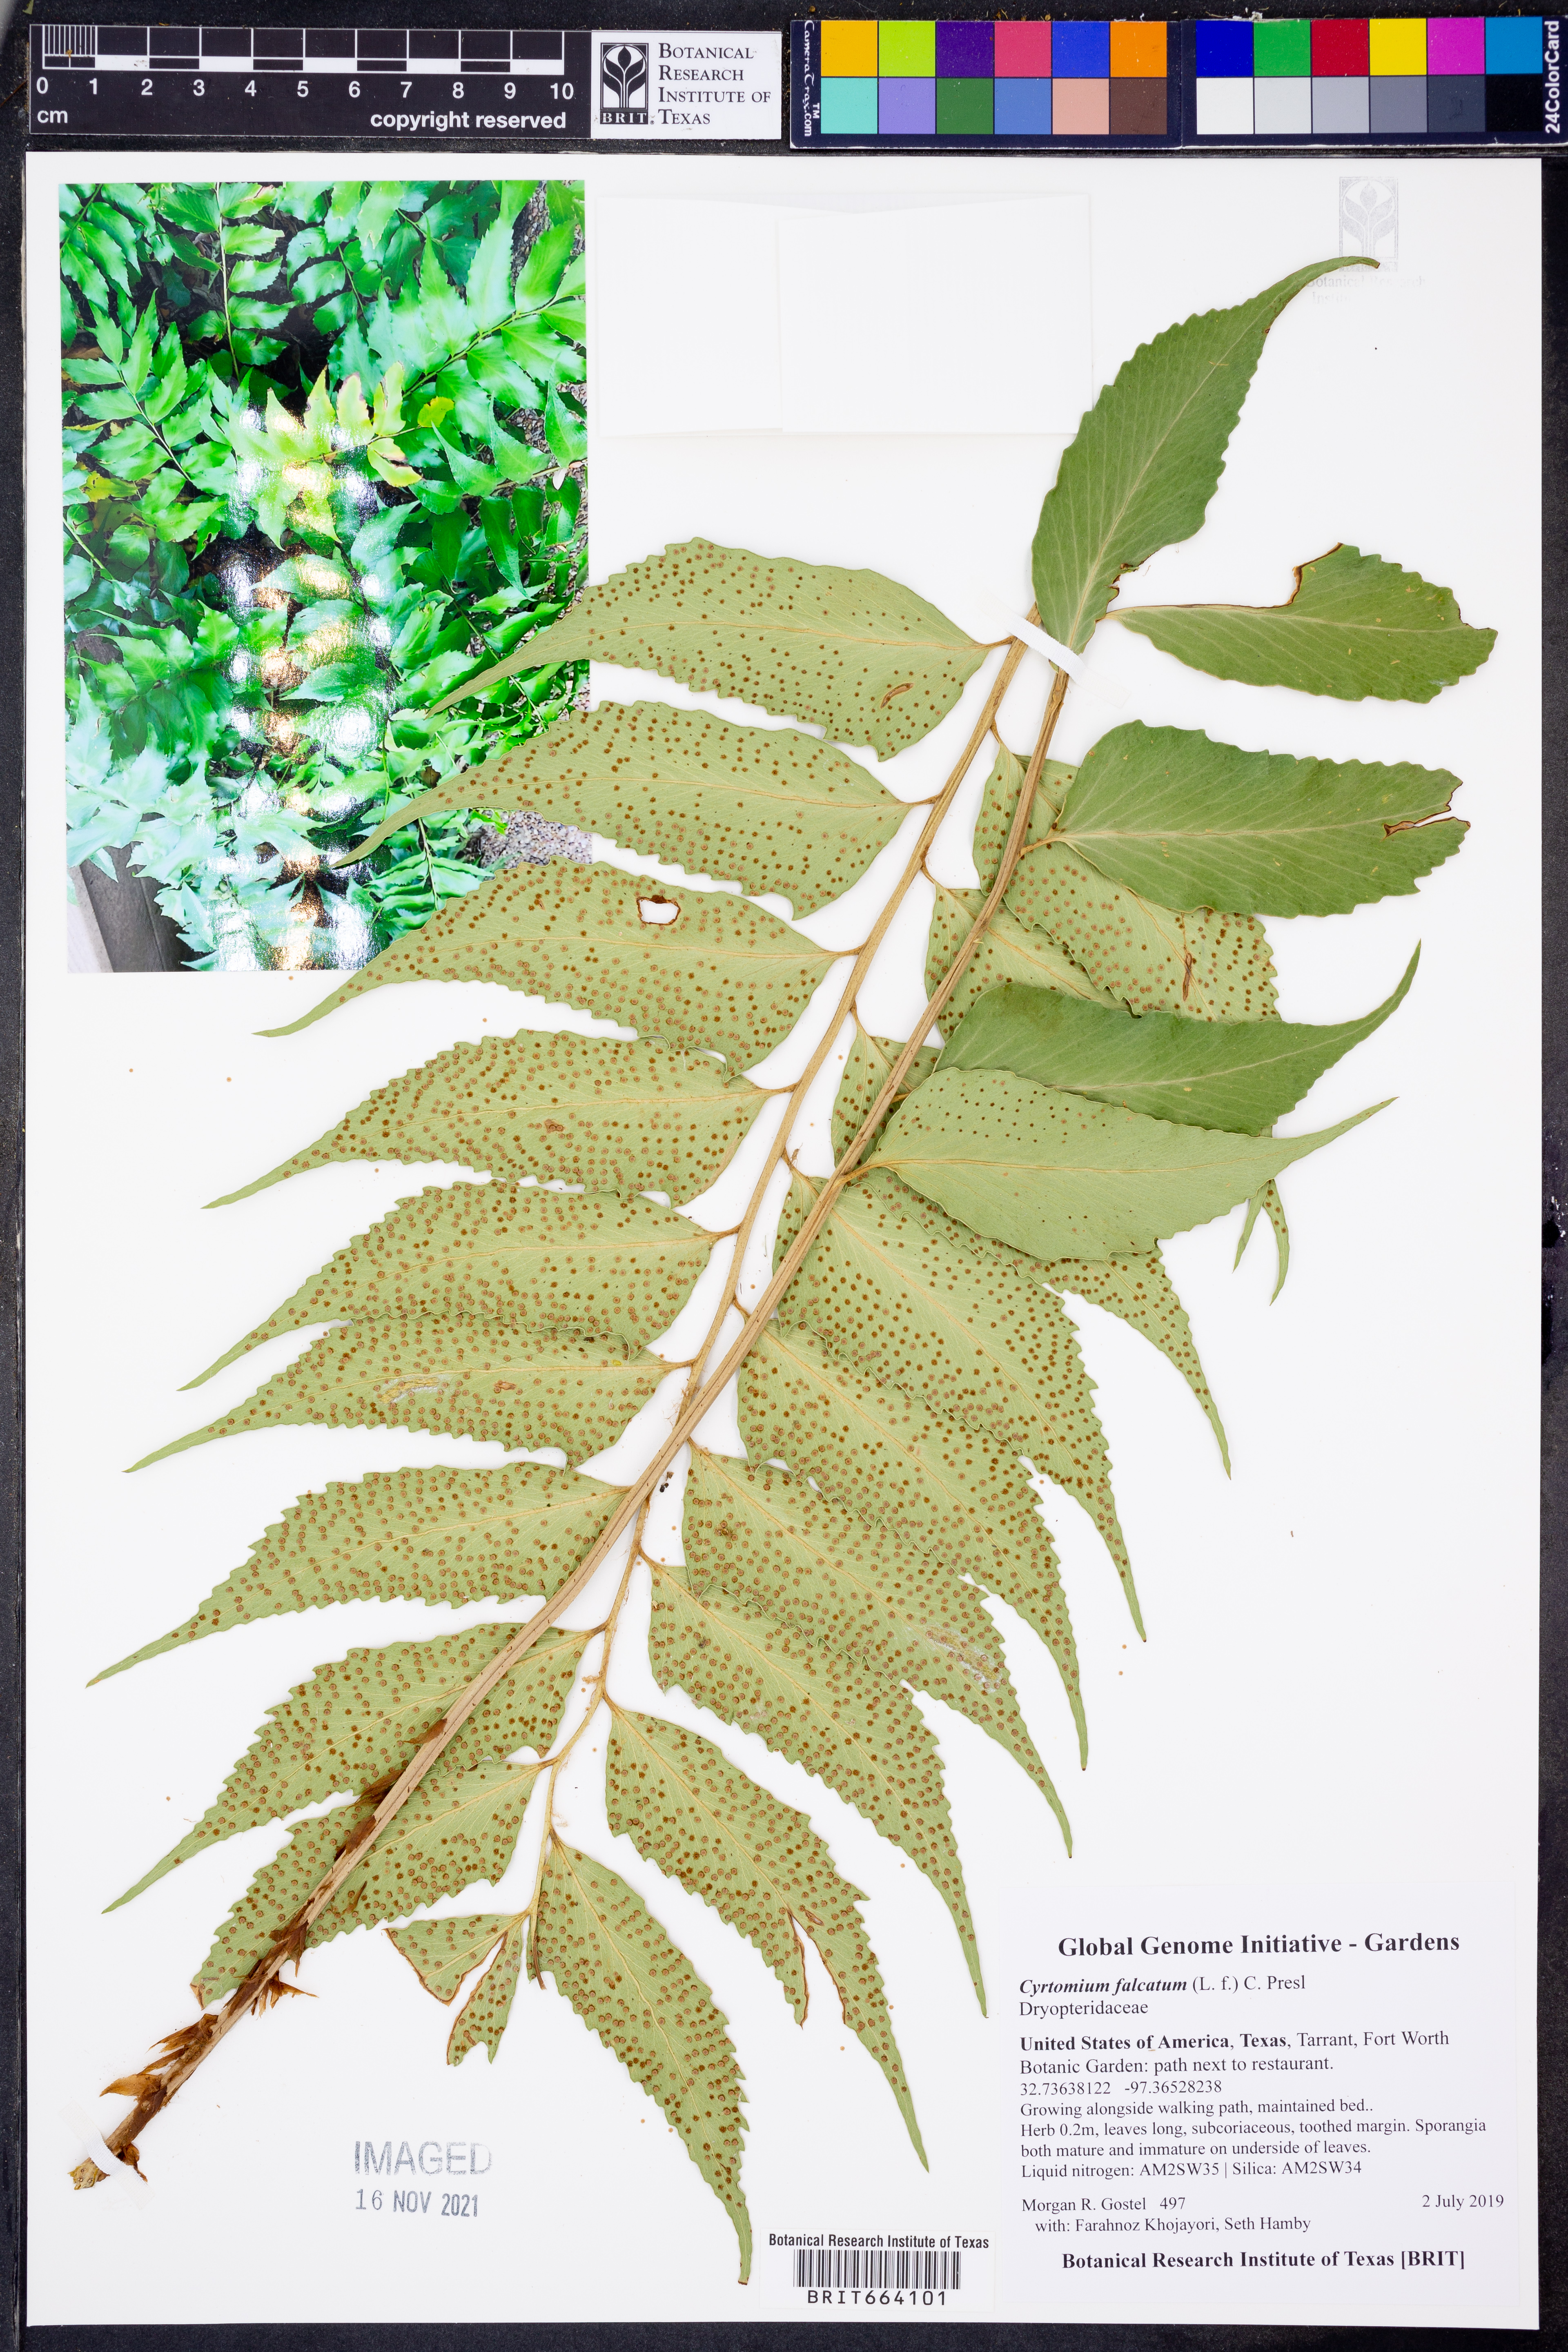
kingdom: Plantae
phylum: Tracheophyta
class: Polypodiopsida
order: Polypodiales
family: Dryopteridaceae
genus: Cyrtomium
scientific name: Cyrtomium falcatum
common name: House holly-fern
